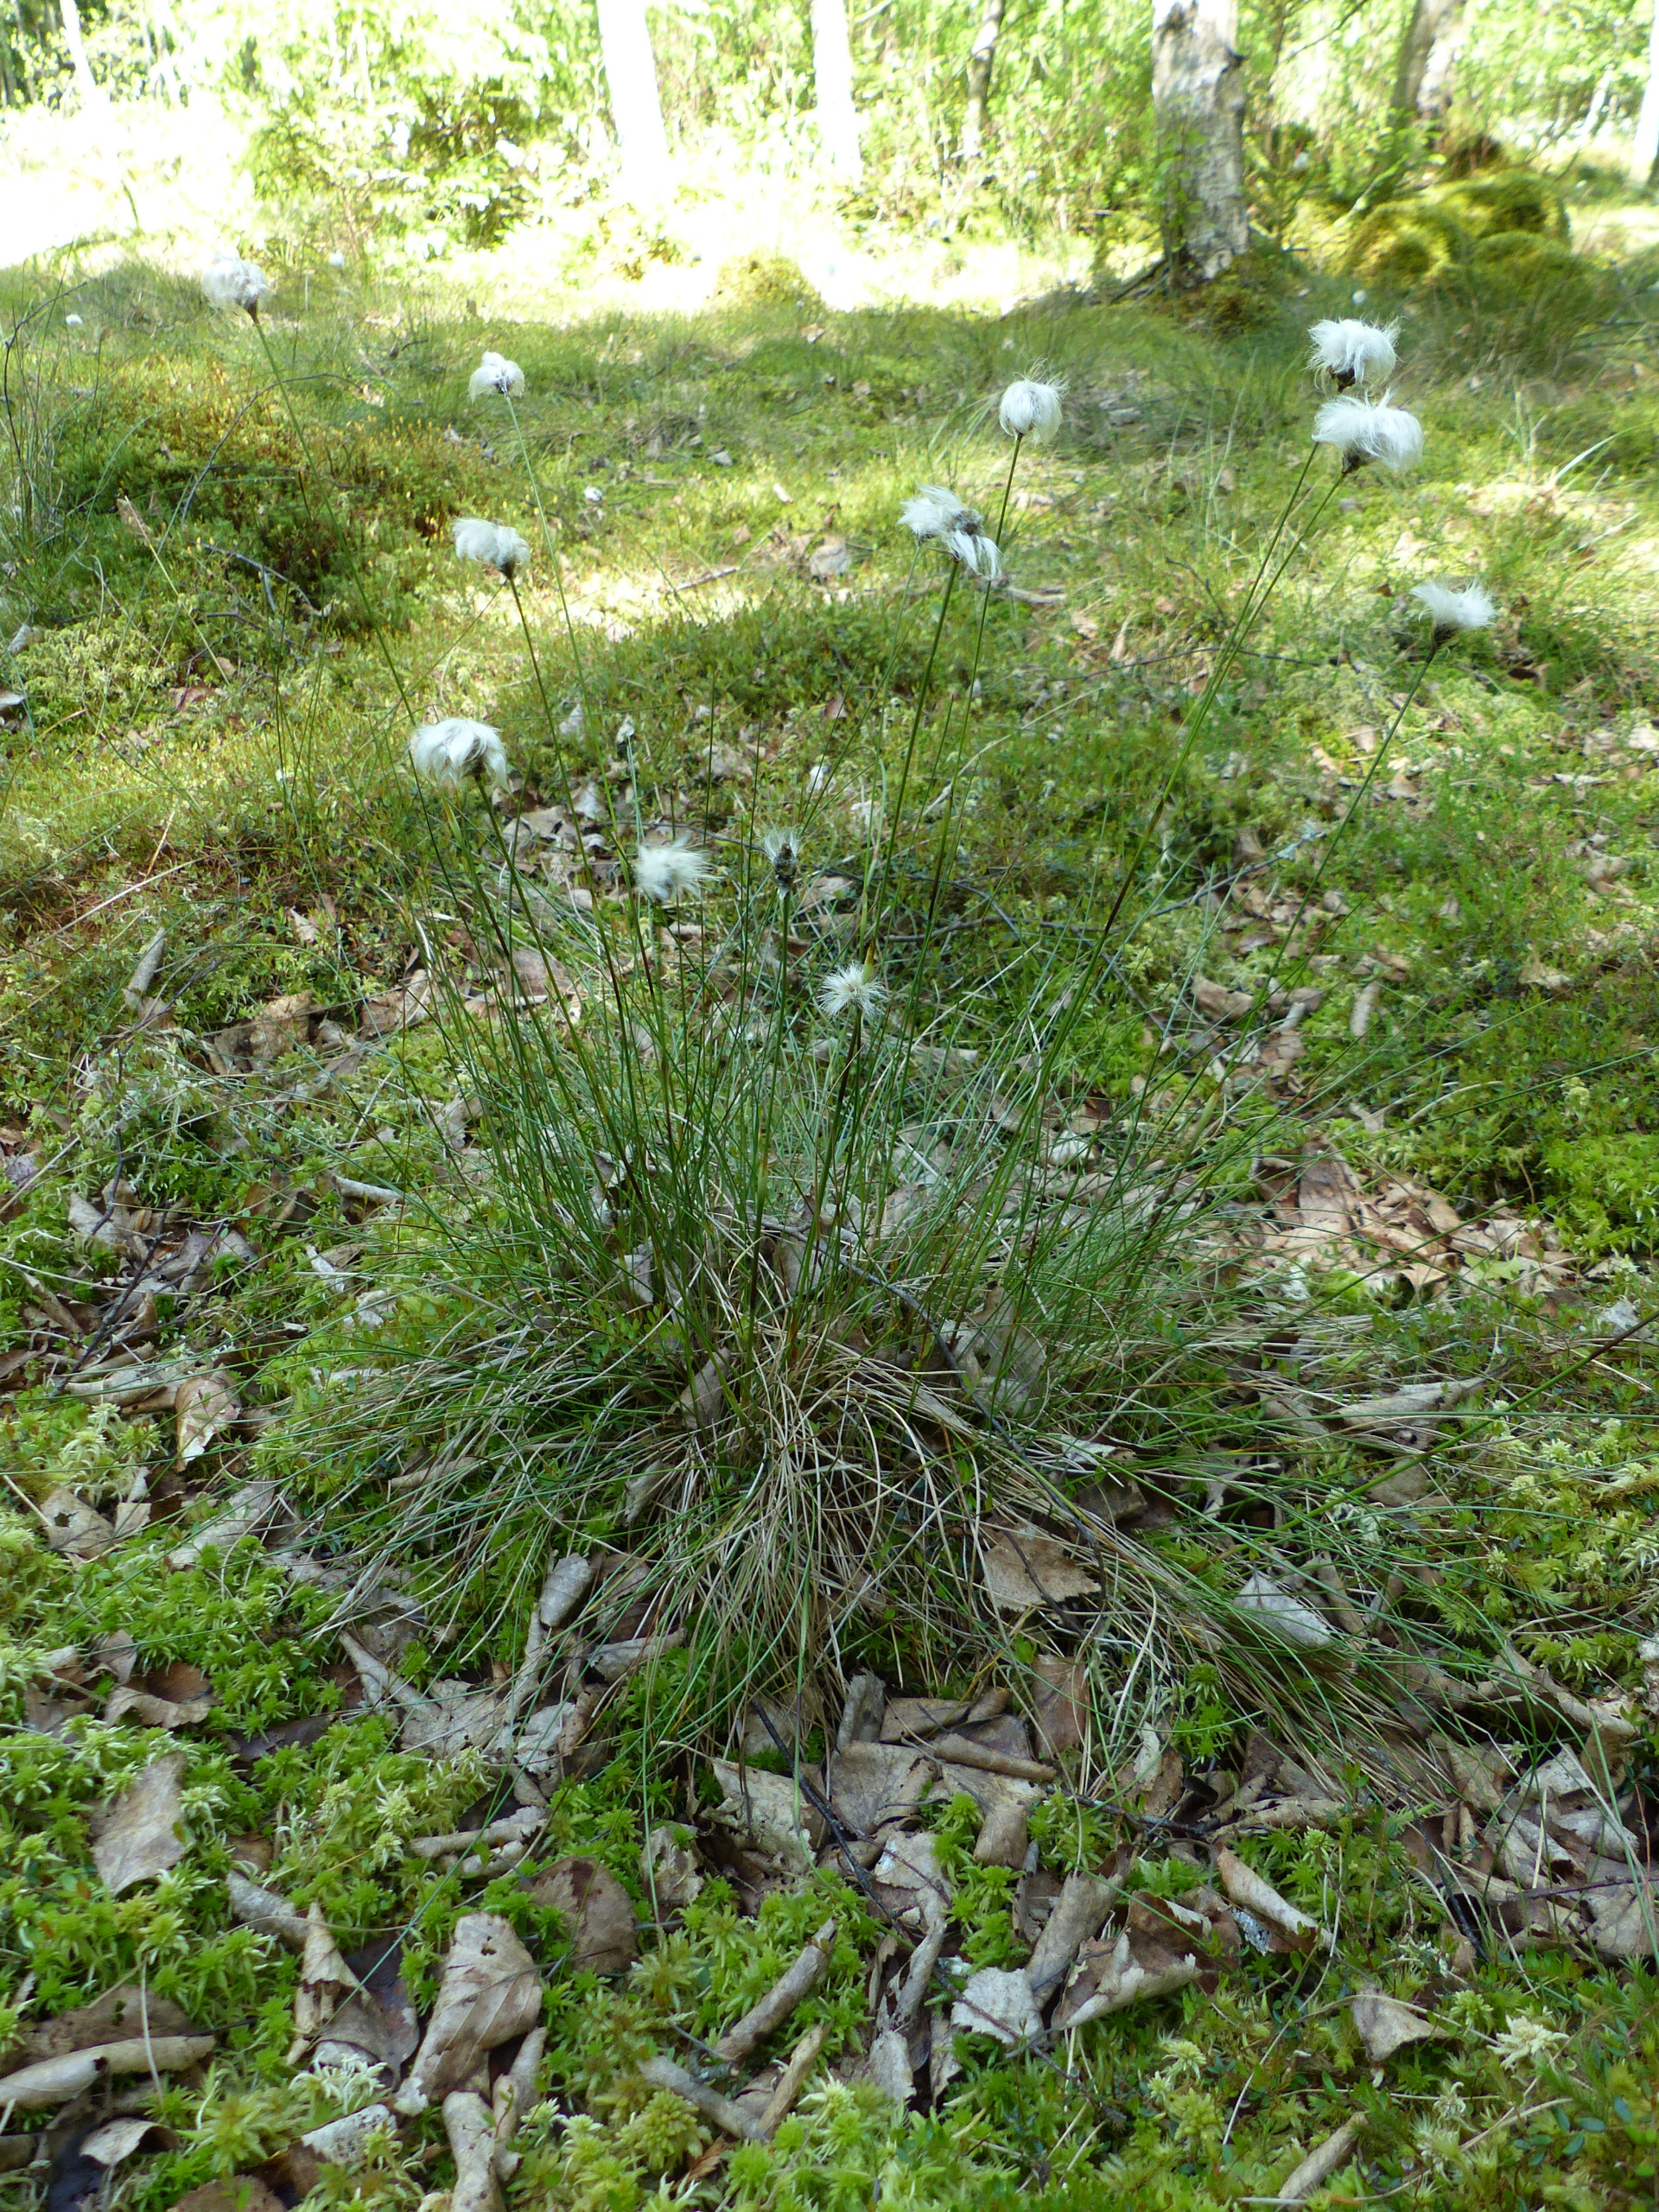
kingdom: Plantae
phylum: Tracheophyta
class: Liliopsida
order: Poales
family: Cyperaceae
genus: Eriophorum
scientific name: Eriophorum vaginatum
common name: Tue-kæruld
